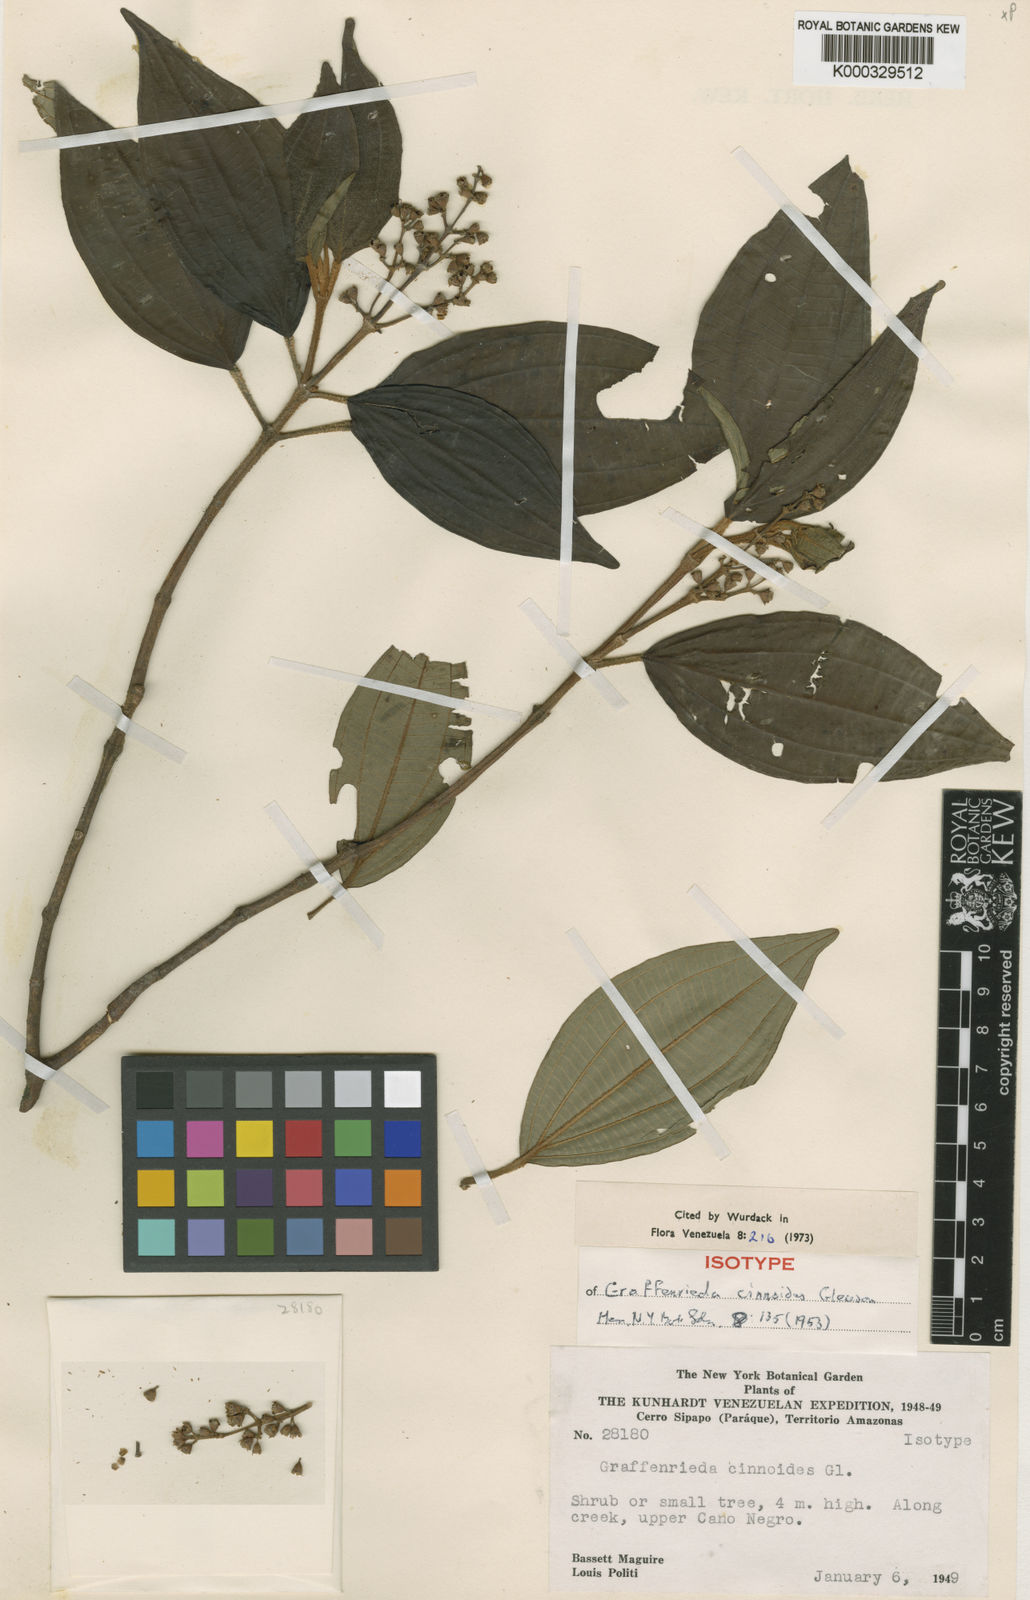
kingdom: Plantae
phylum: Tracheophyta
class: Magnoliopsida
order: Myrtales
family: Melastomataceae
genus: Graffenrieda
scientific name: Graffenrieda cinnoides
